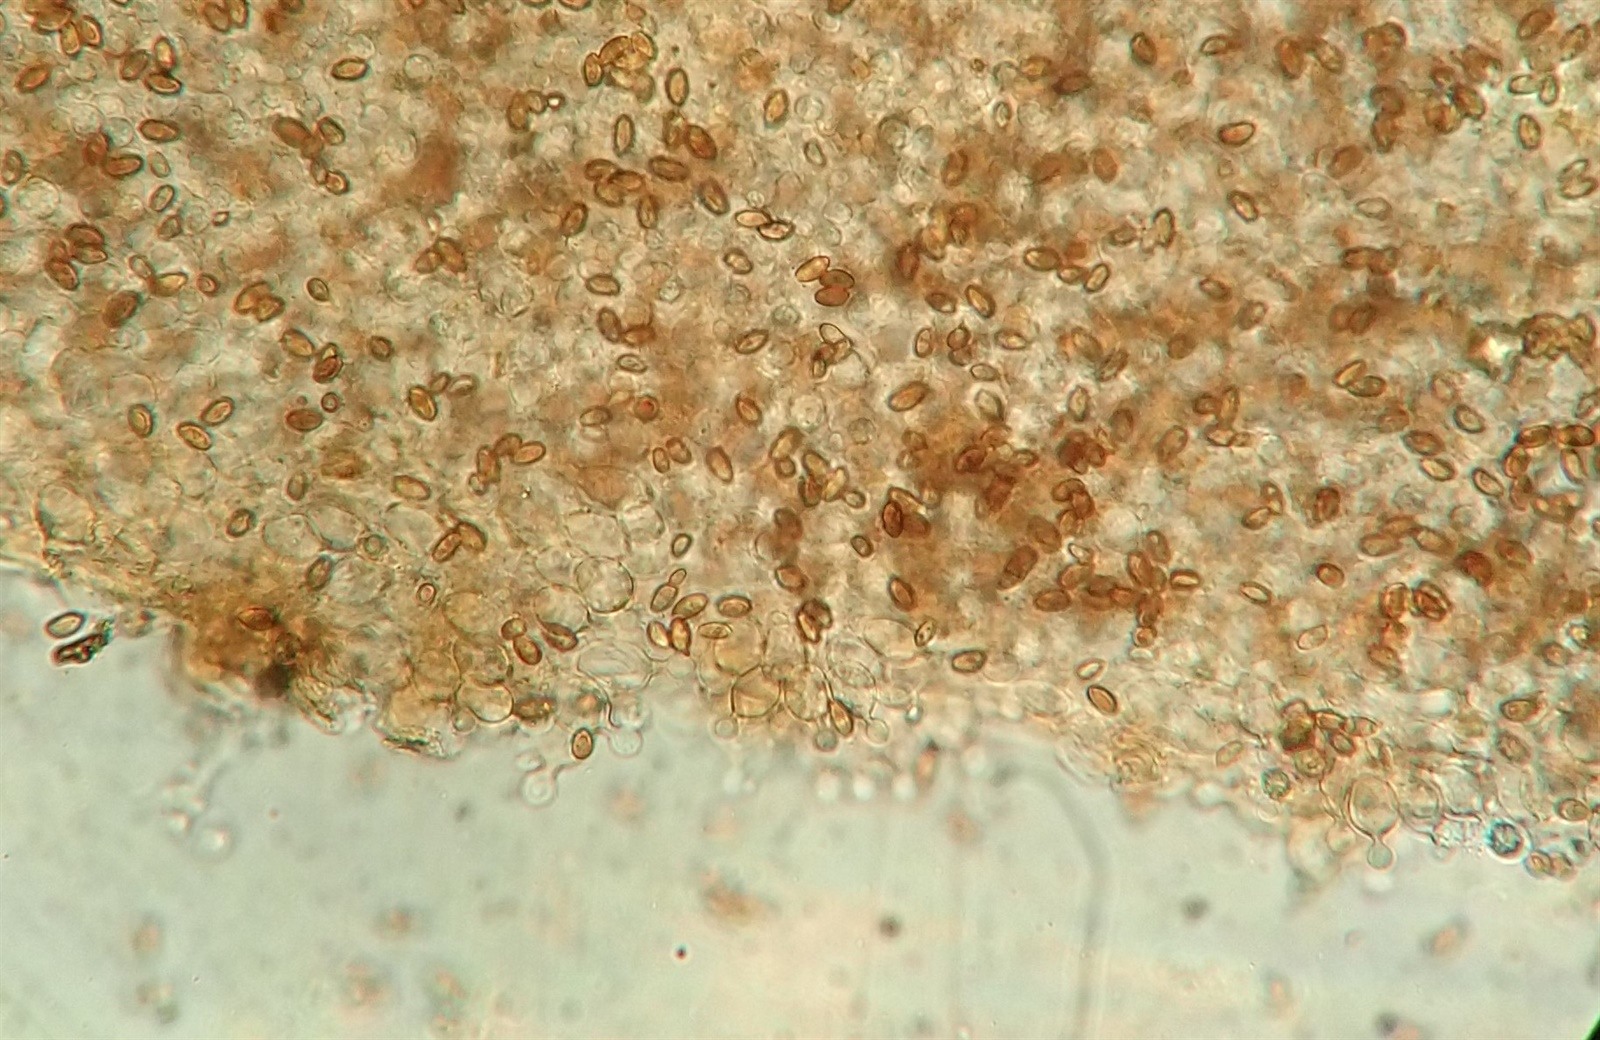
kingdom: Fungi
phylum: Basidiomycota
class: Agaricomycetes
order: Agaricales
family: Bolbitiaceae
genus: Conocybe
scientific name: Conocybe rickeniana
